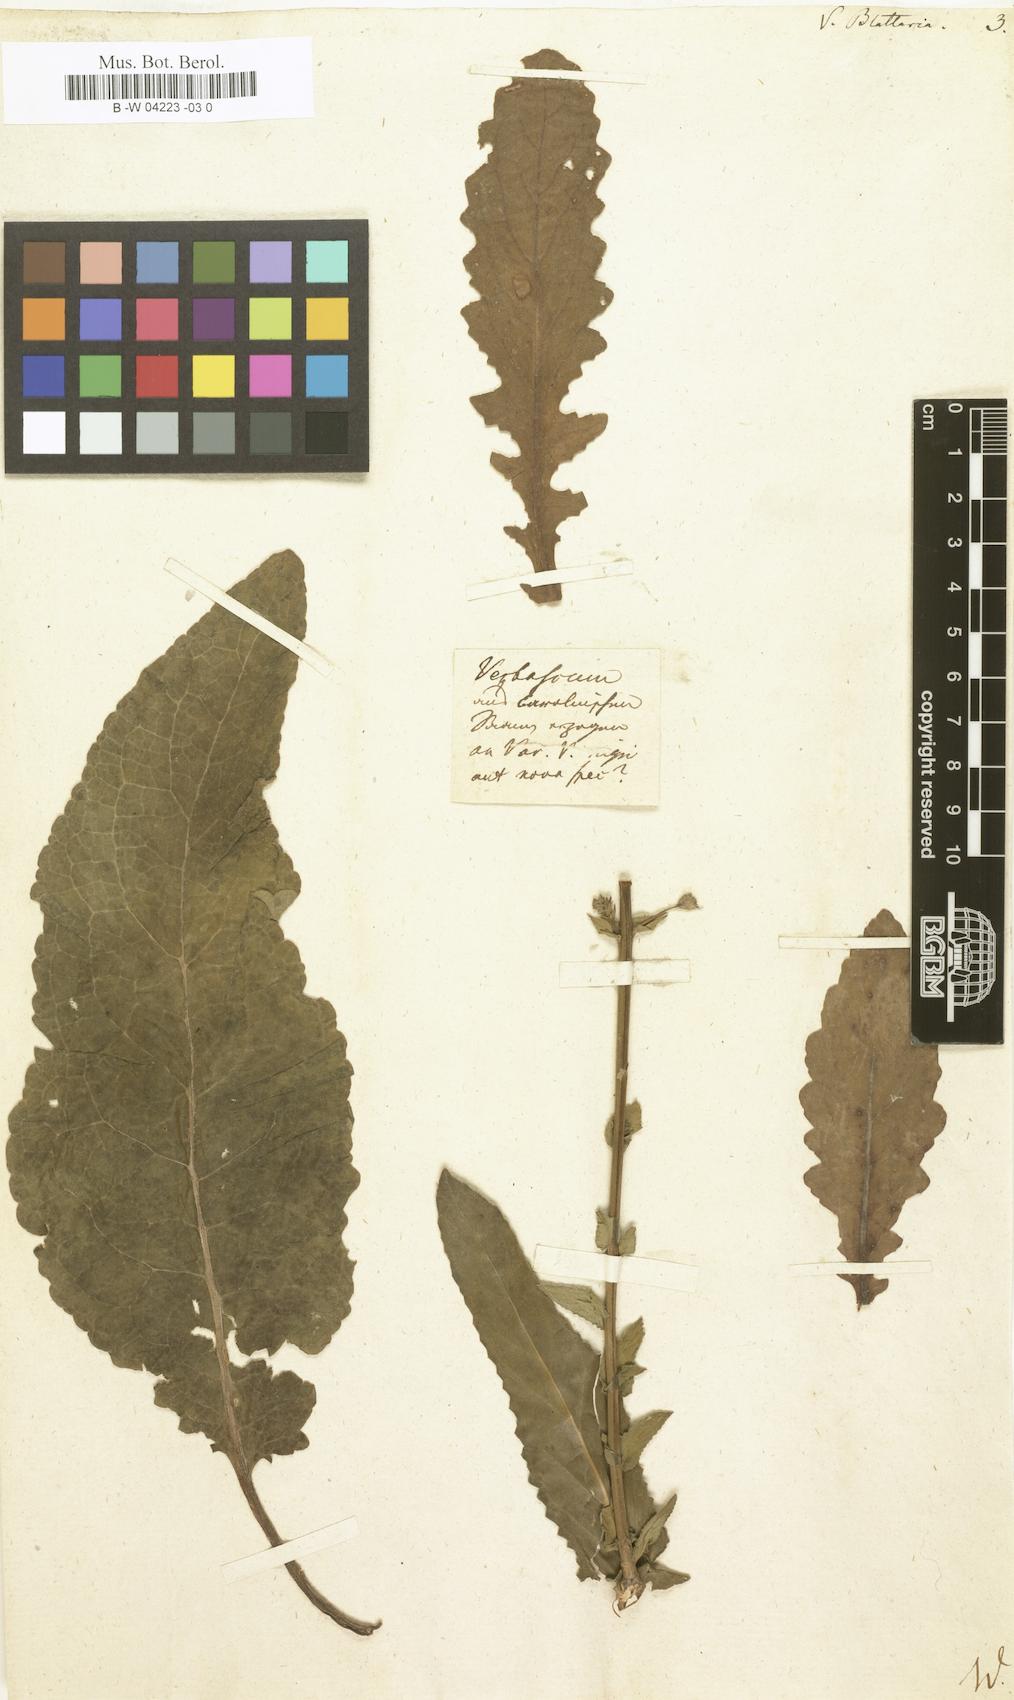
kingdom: Plantae
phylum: Tracheophyta
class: Magnoliopsida
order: Lamiales
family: Scrophulariaceae
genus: Verbascum
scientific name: Verbascum blattaria
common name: Moth mullein
